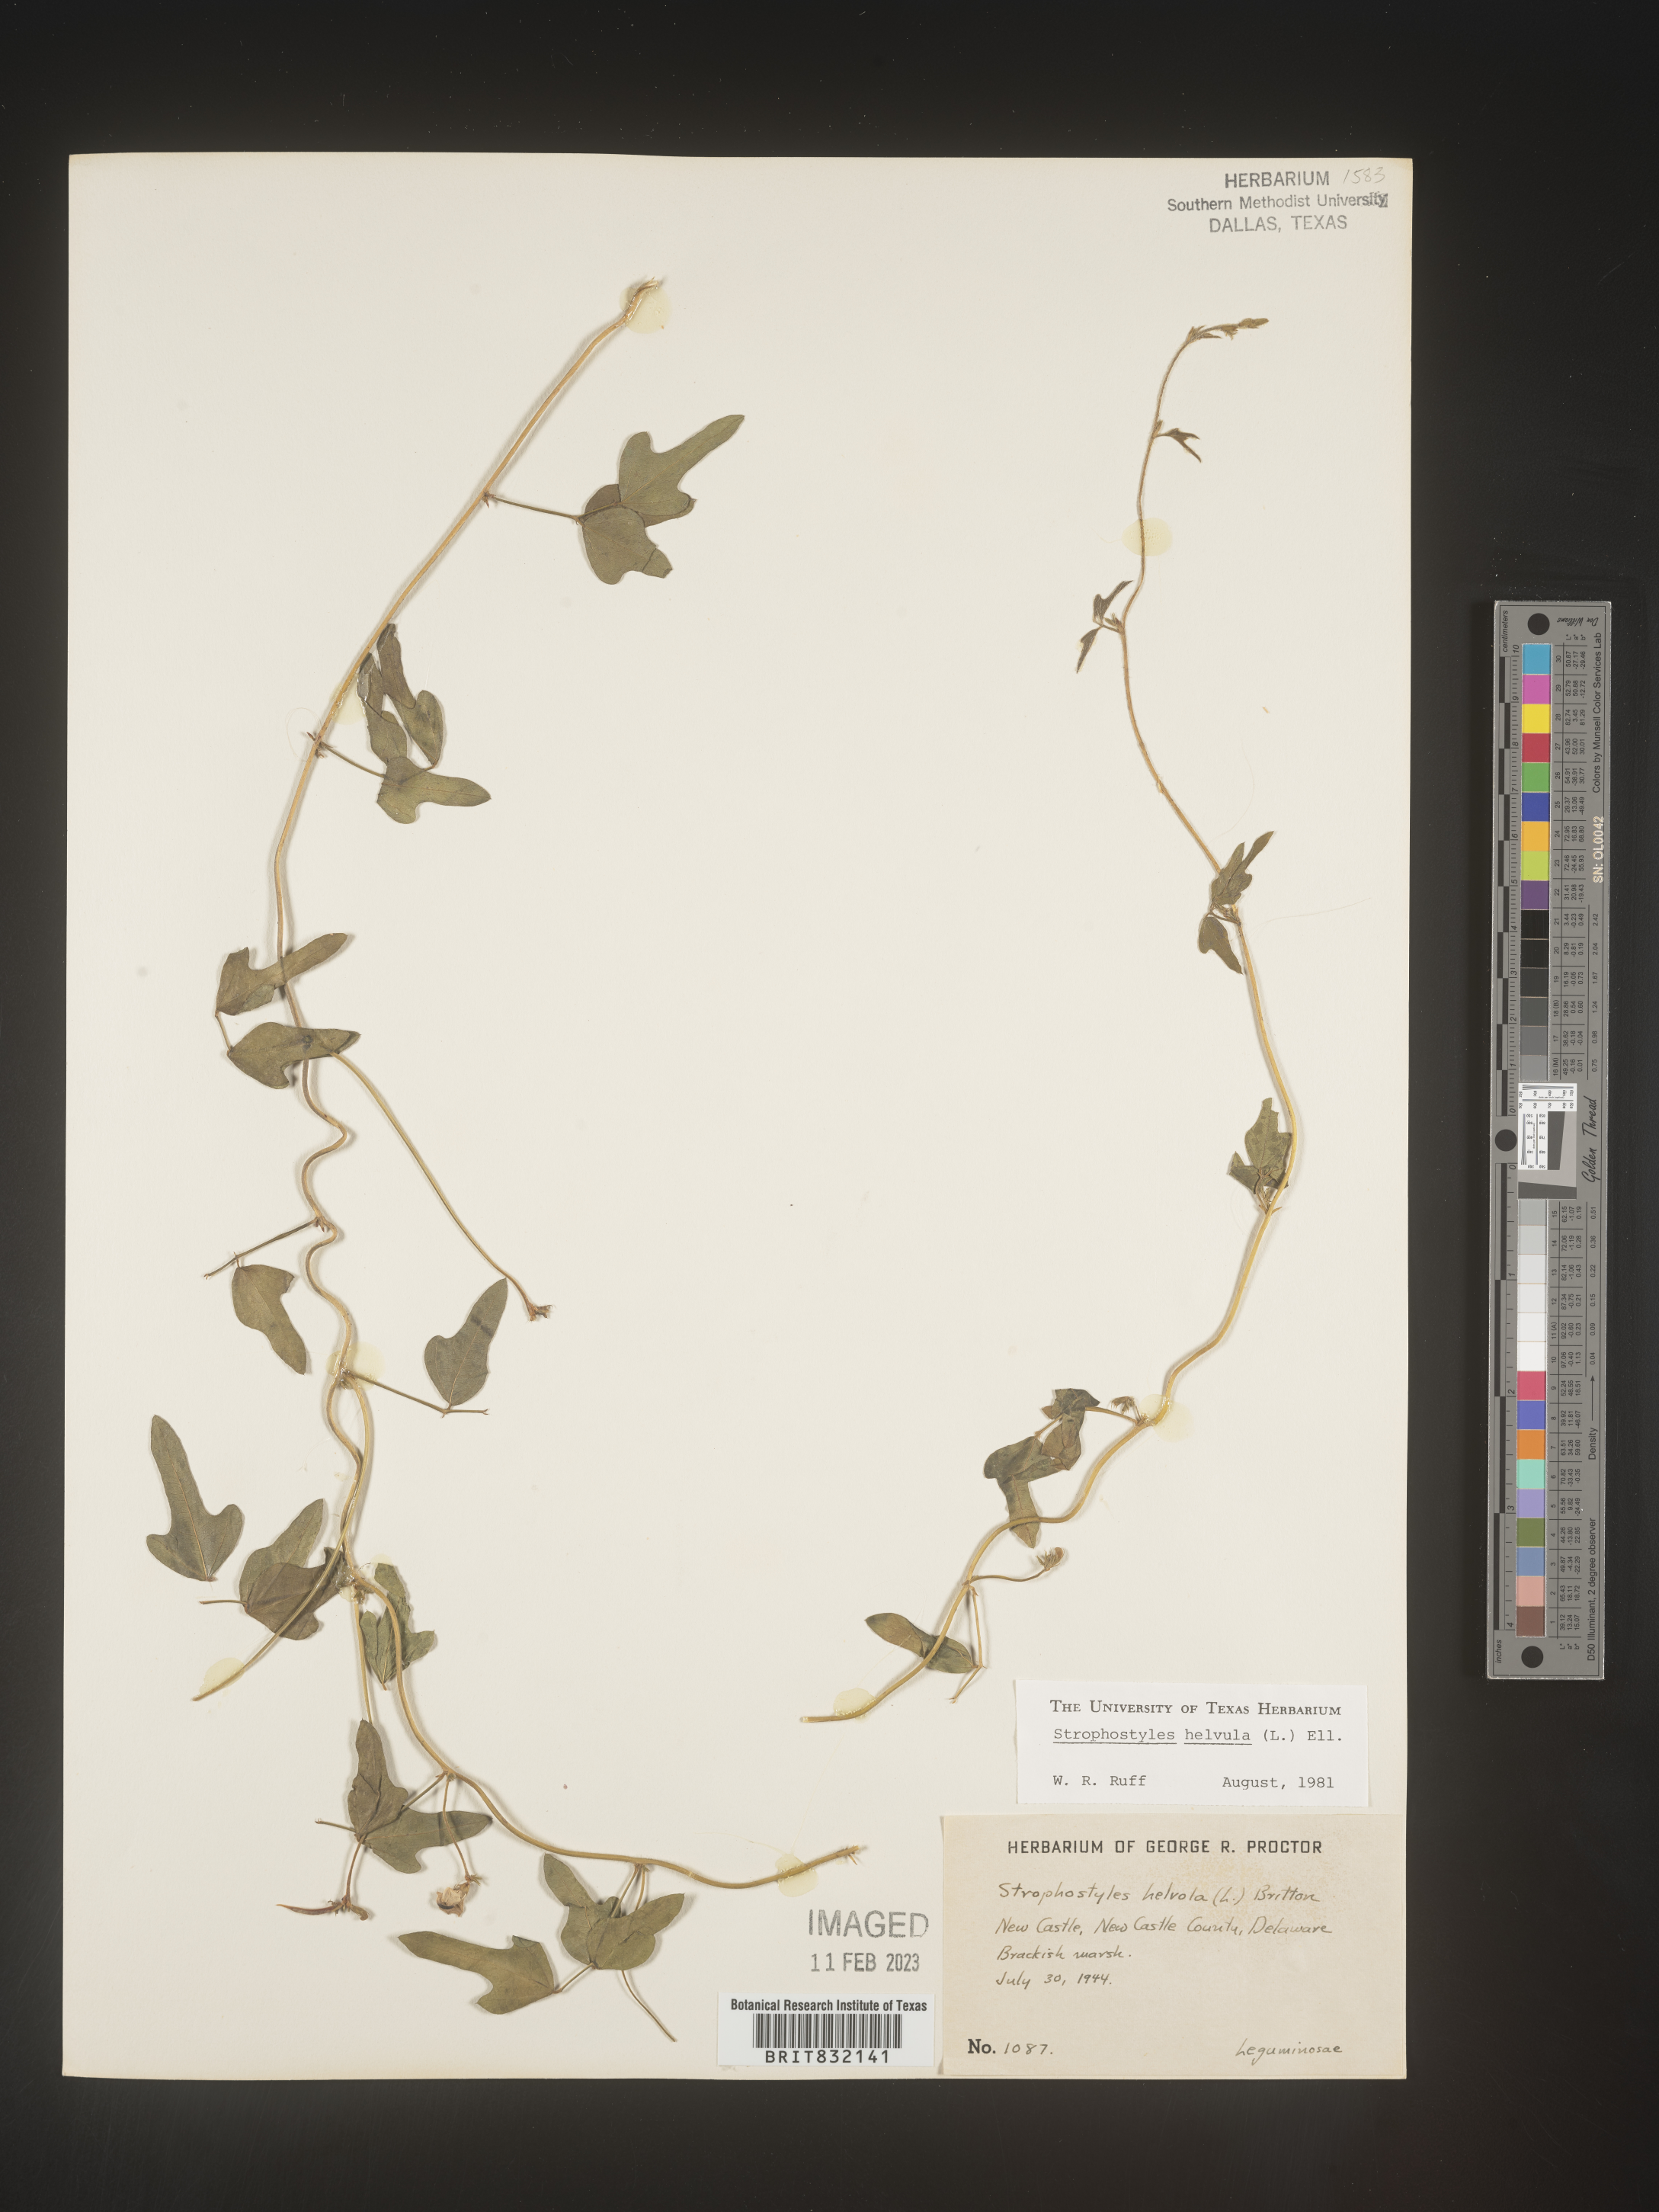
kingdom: Plantae
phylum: Tracheophyta
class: Magnoliopsida
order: Fabales
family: Fabaceae
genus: Strophostyles
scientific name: Strophostyles helvola
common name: Trailing wild bean
